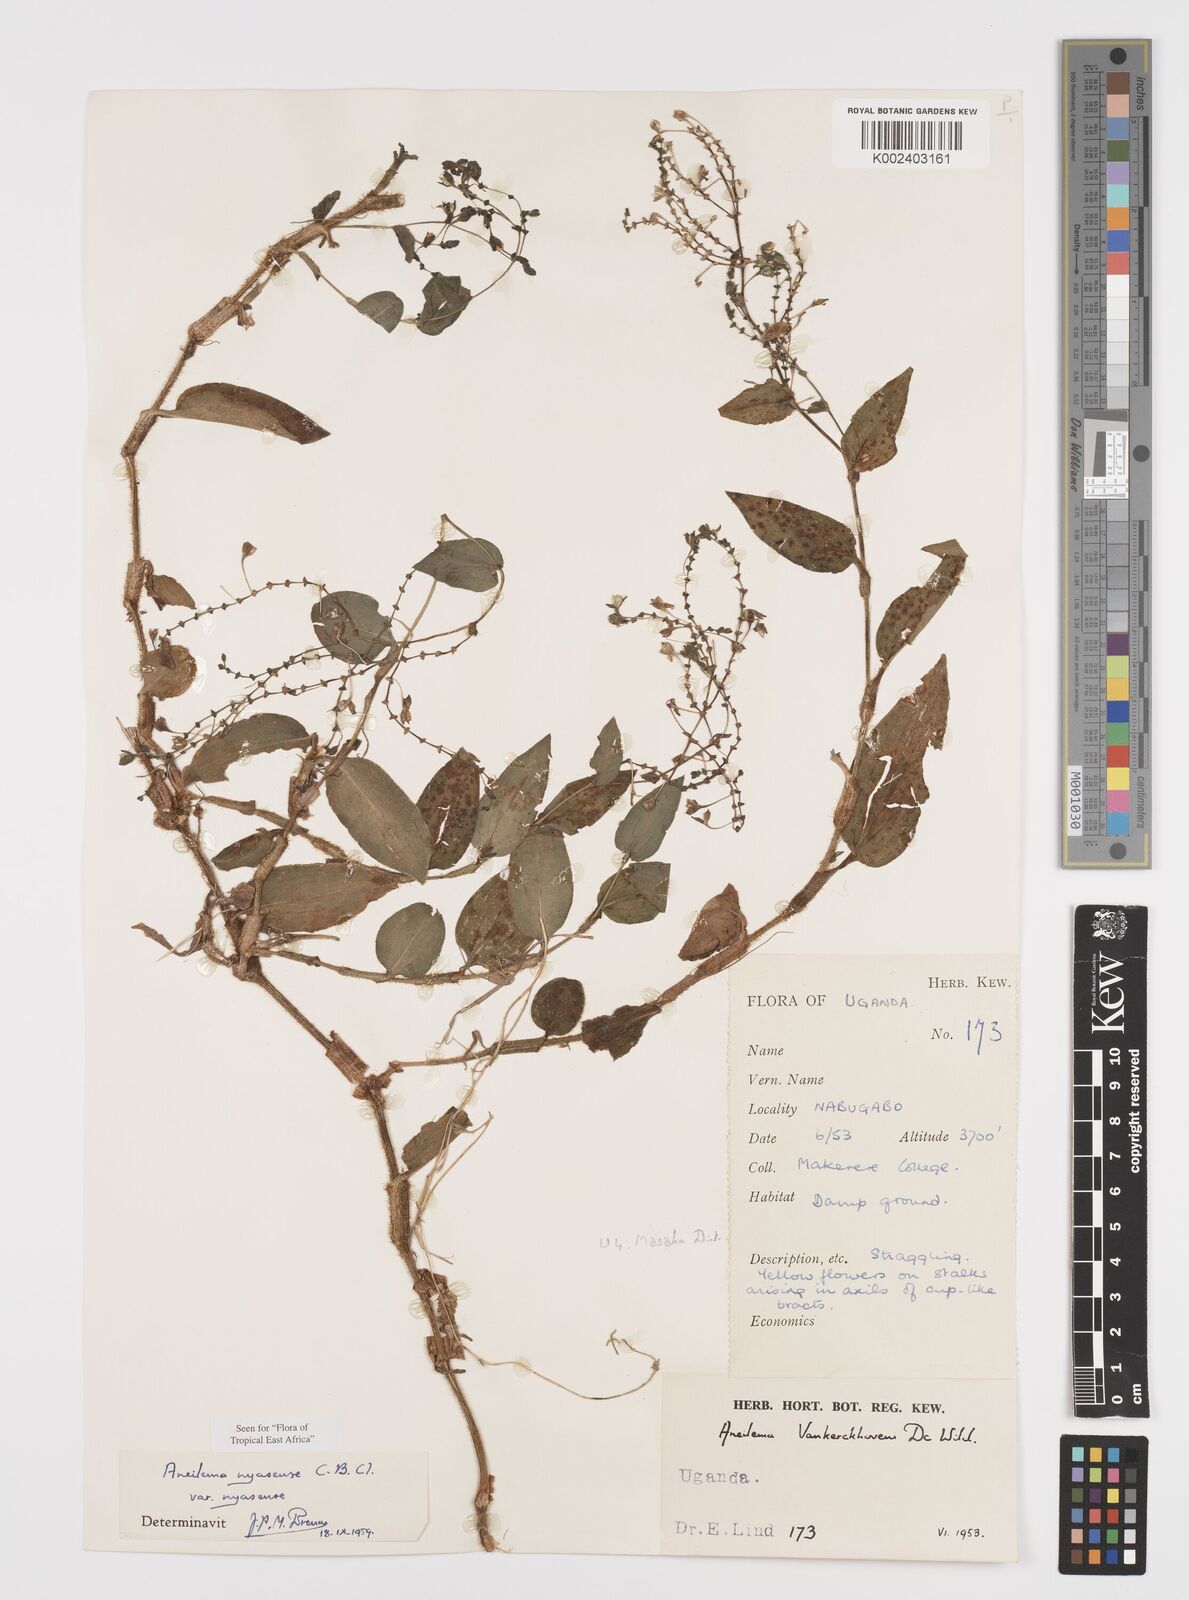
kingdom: Plantae
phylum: Tracheophyta
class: Liliopsida
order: Commelinales
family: Commelinaceae
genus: Aneilema
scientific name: Aneilema nyasense
